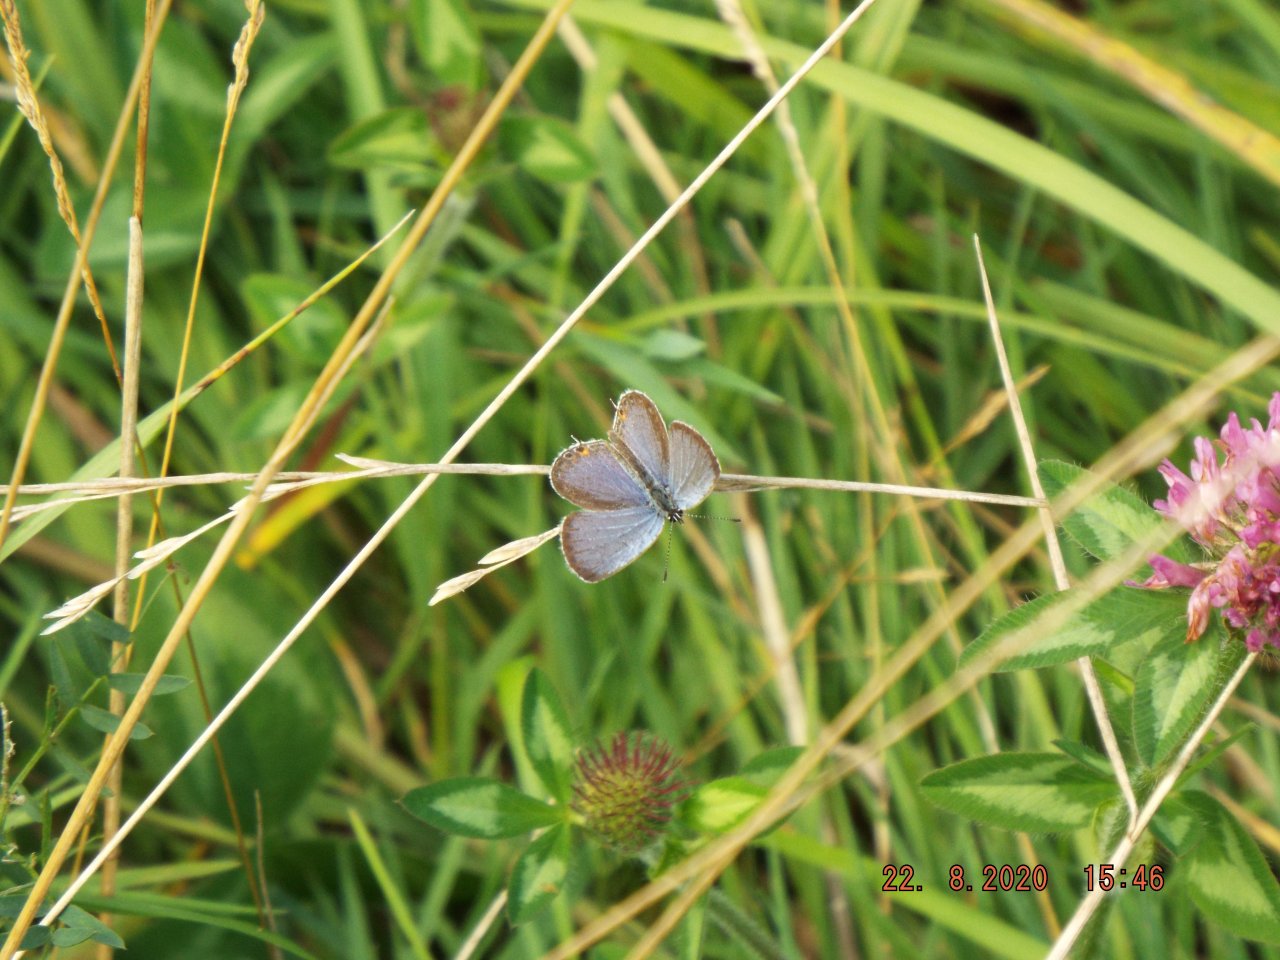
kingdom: Animalia
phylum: Arthropoda
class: Insecta
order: Lepidoptera
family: Lycaenidae
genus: Elkalyce
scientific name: Elkalyce comyntas
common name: Eastern Tailed-Blue
